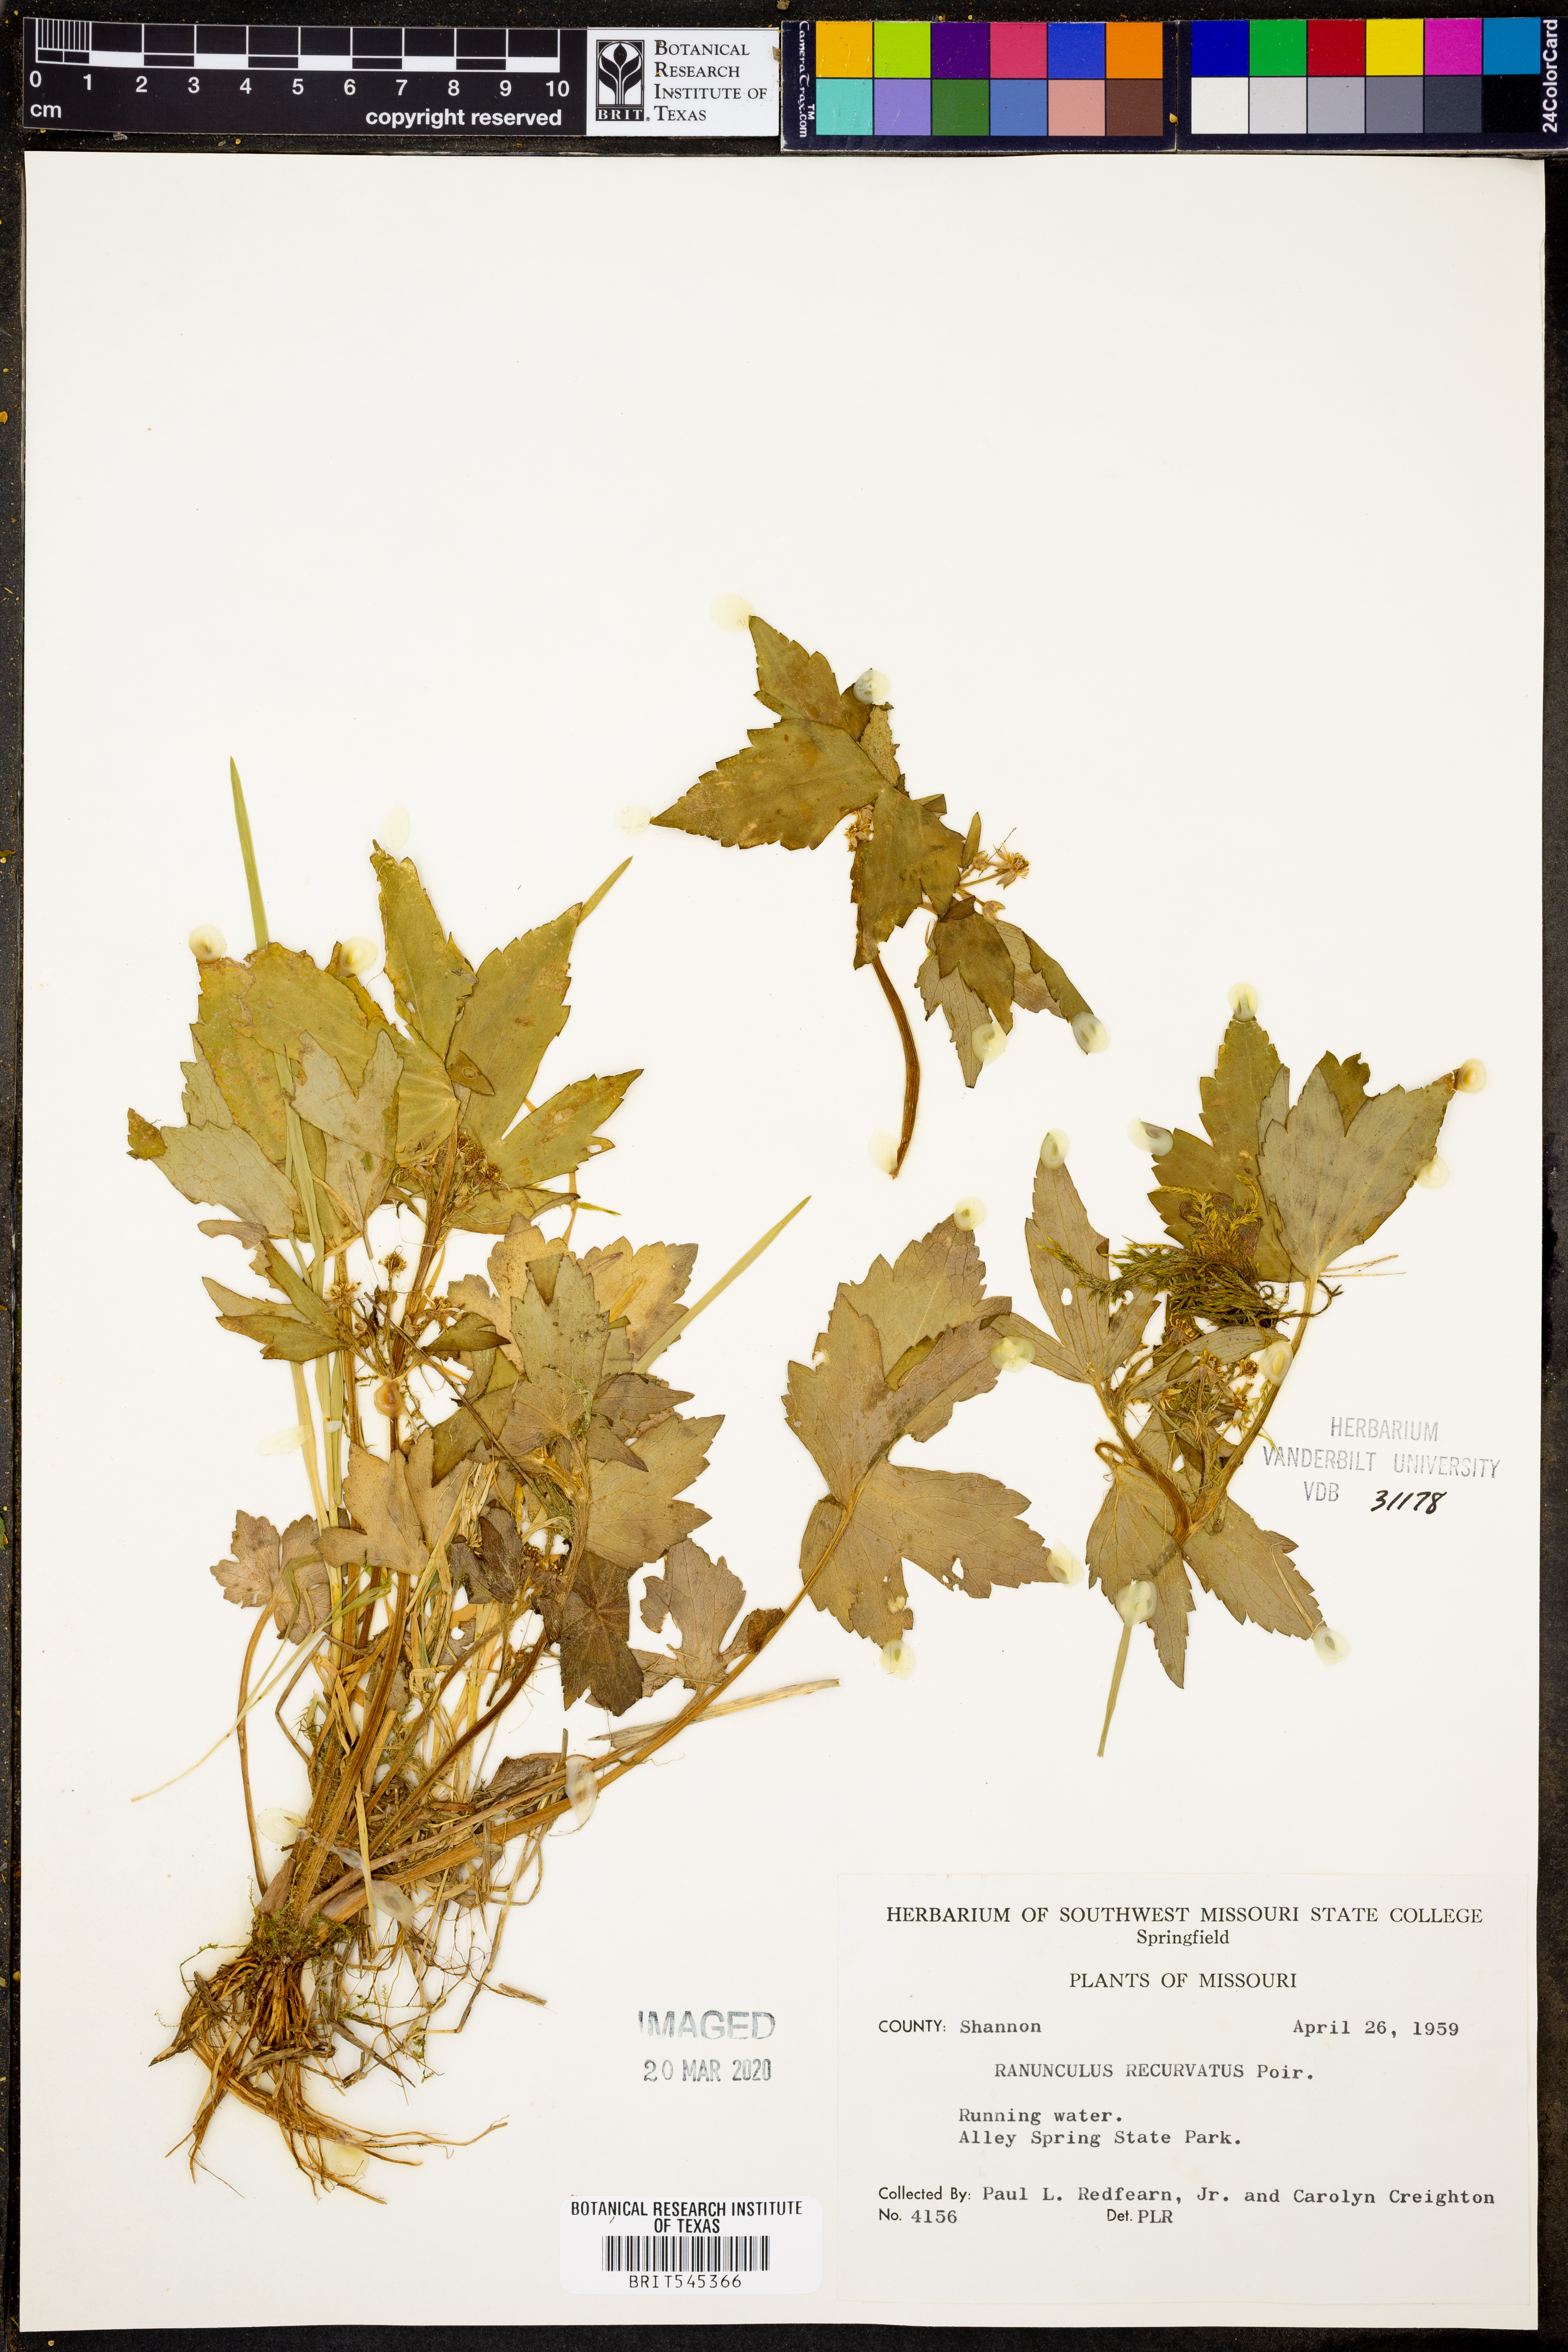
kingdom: Plantae
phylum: Tracheophyta
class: Magnoliopsida
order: Ranunculales
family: Ranunculaceae
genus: Ranunculus
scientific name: Ranunculus recurvatus
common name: Blisterwort
